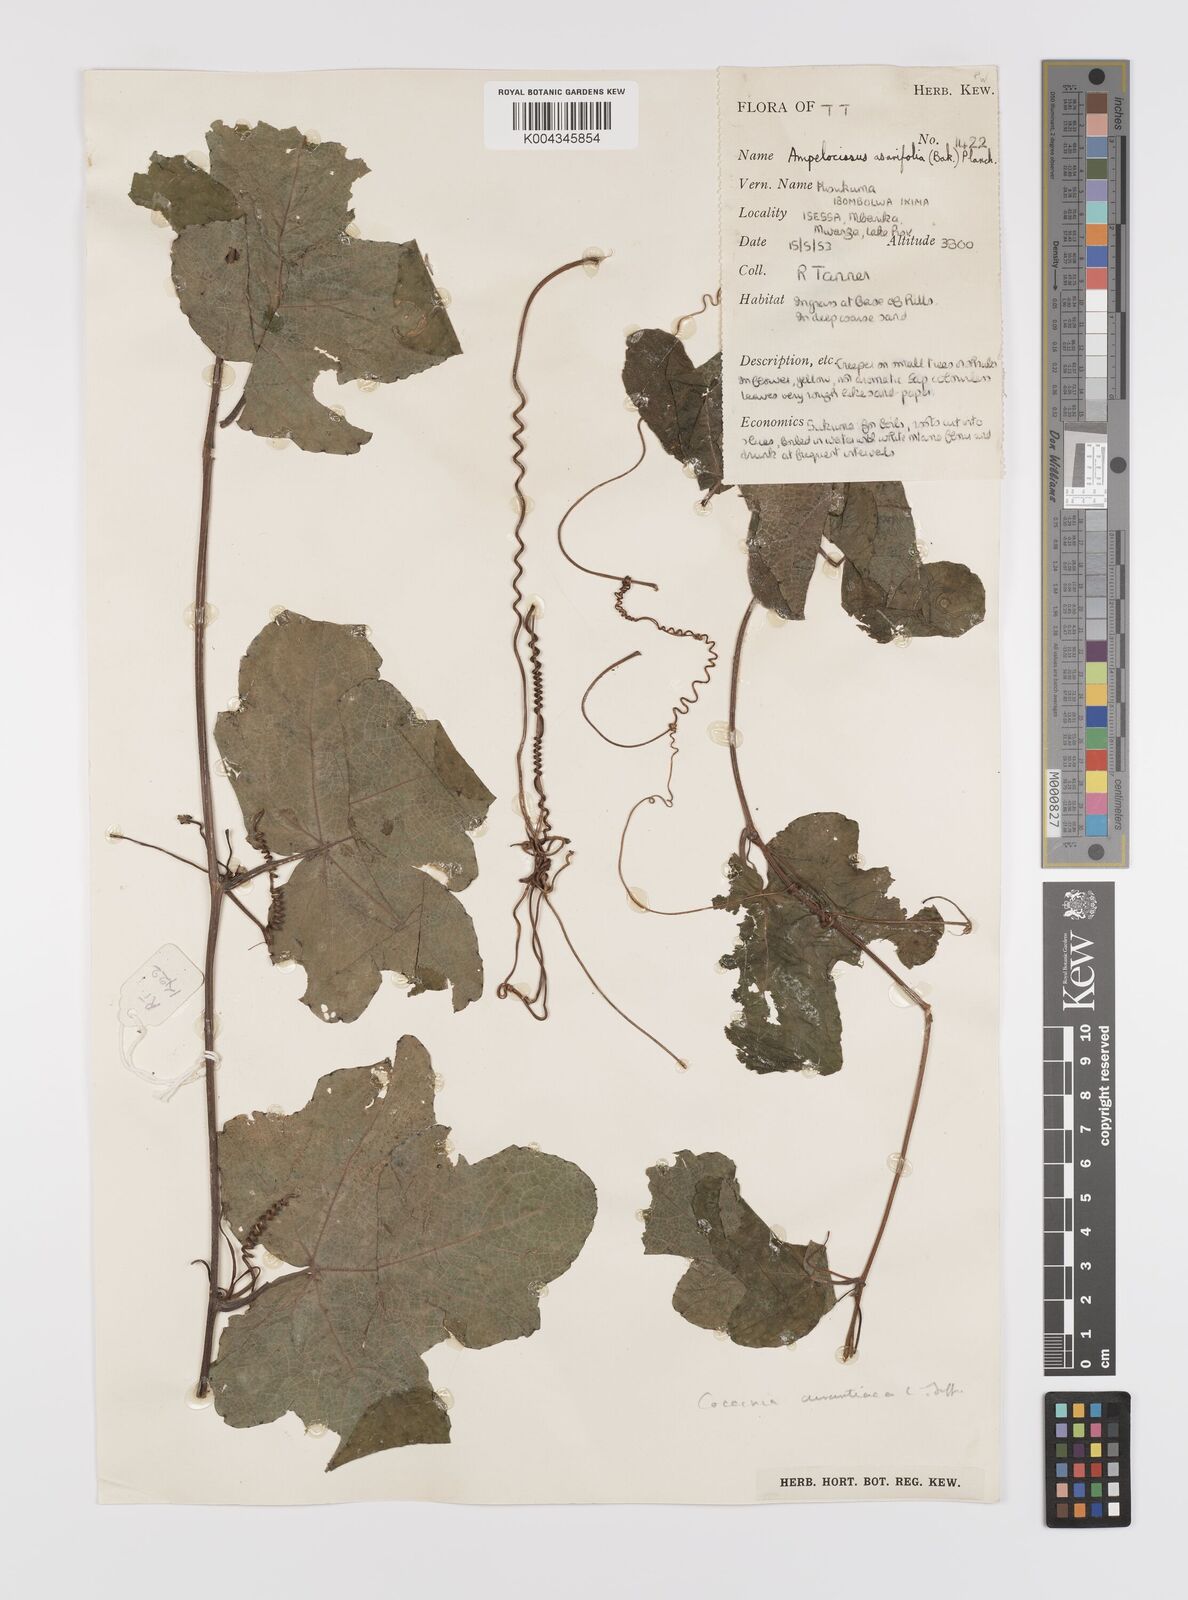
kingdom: Plantae
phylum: Tracheophyta
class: Magnoliopsida
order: Cucurbitales
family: Cucurbitaceae
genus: Coccinia
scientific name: Coccinia adoensis
